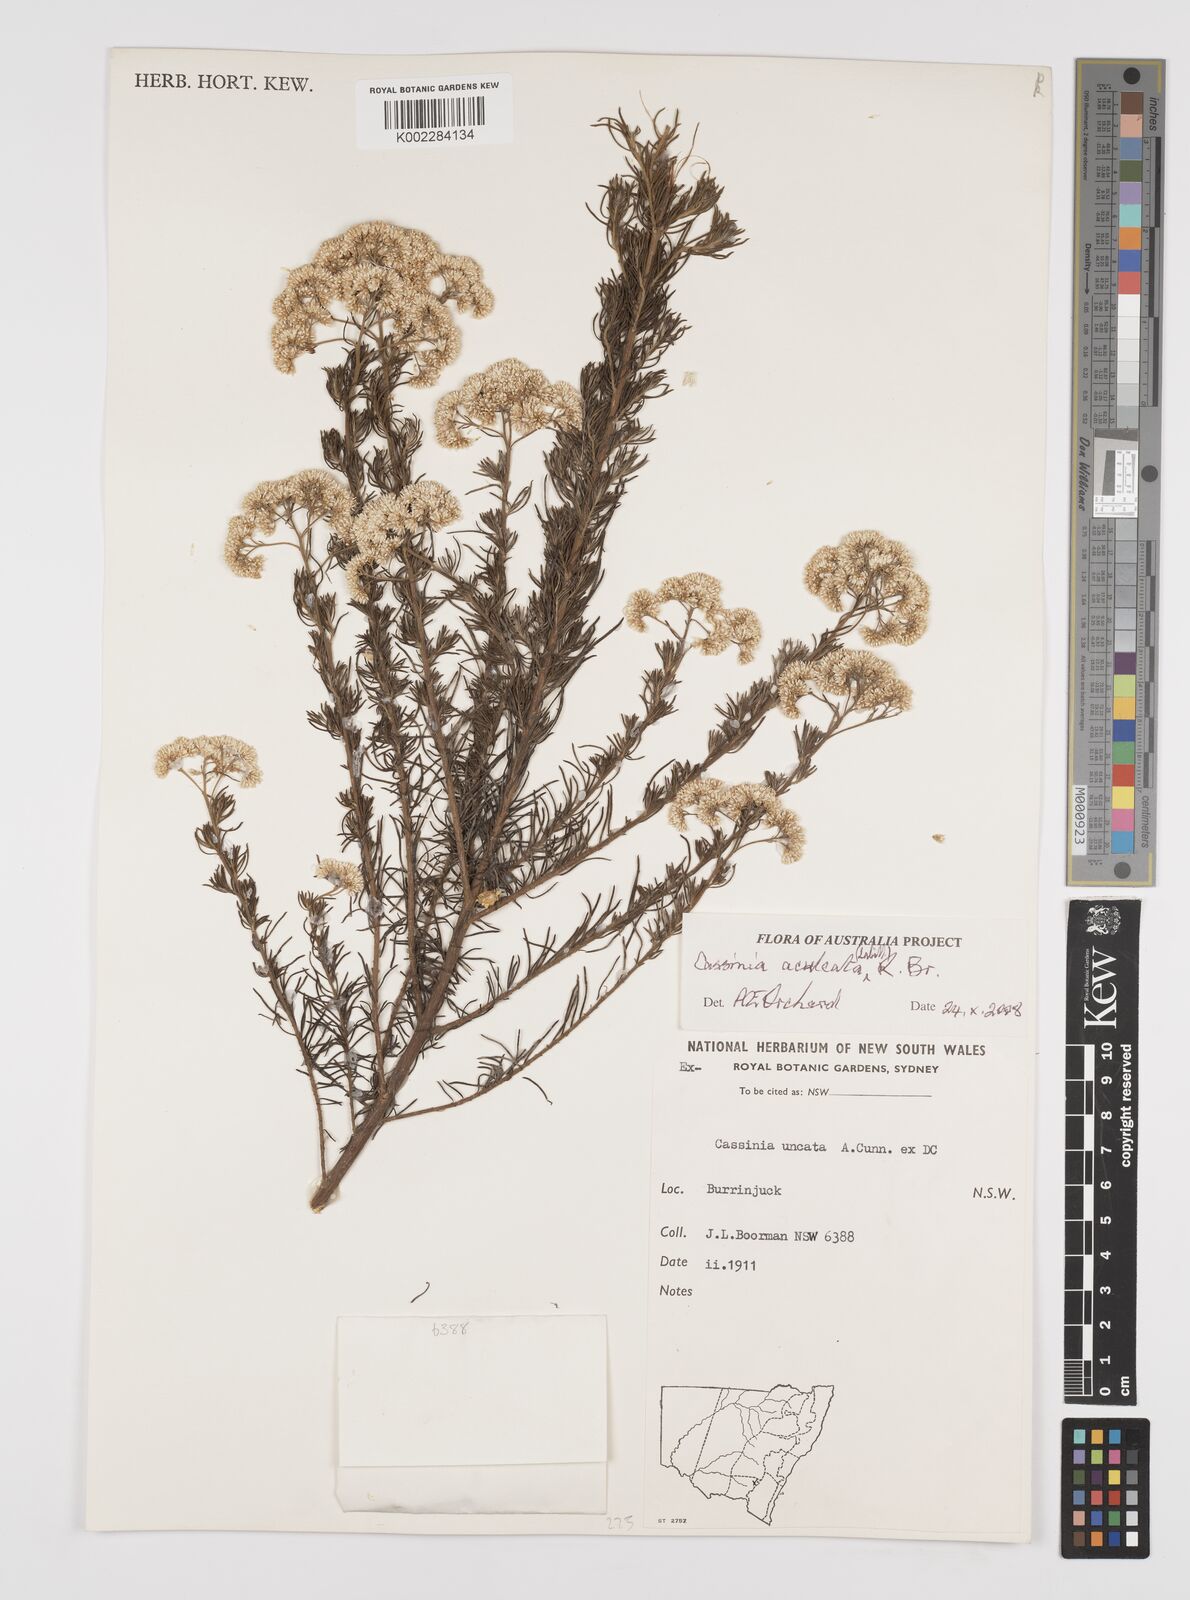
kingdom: Plantae
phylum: Tracheophyta
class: Magnoliopsida
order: Asterales
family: Asteraceae
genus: Cassinia
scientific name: Cassinia aculeata
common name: Australian tauhinu
